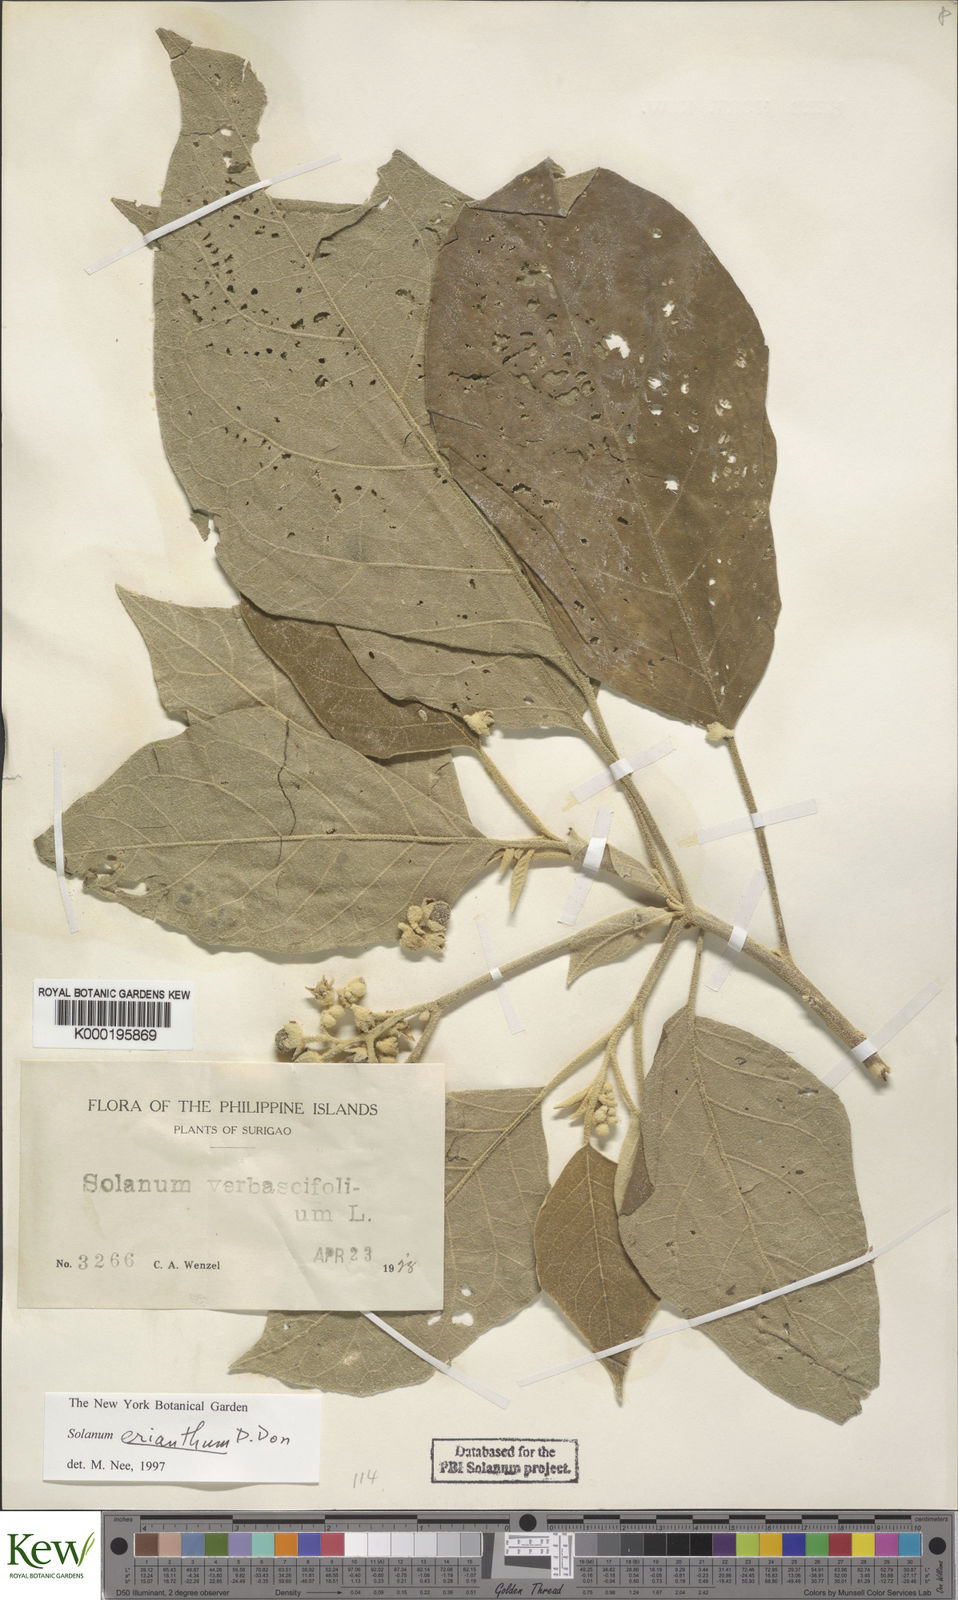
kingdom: Plantae
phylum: Tracheophyta
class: Magnoliopsida
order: Solanales
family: Solanaceae
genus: Solanum
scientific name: Solanum erianthum
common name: Tobacco-tree
